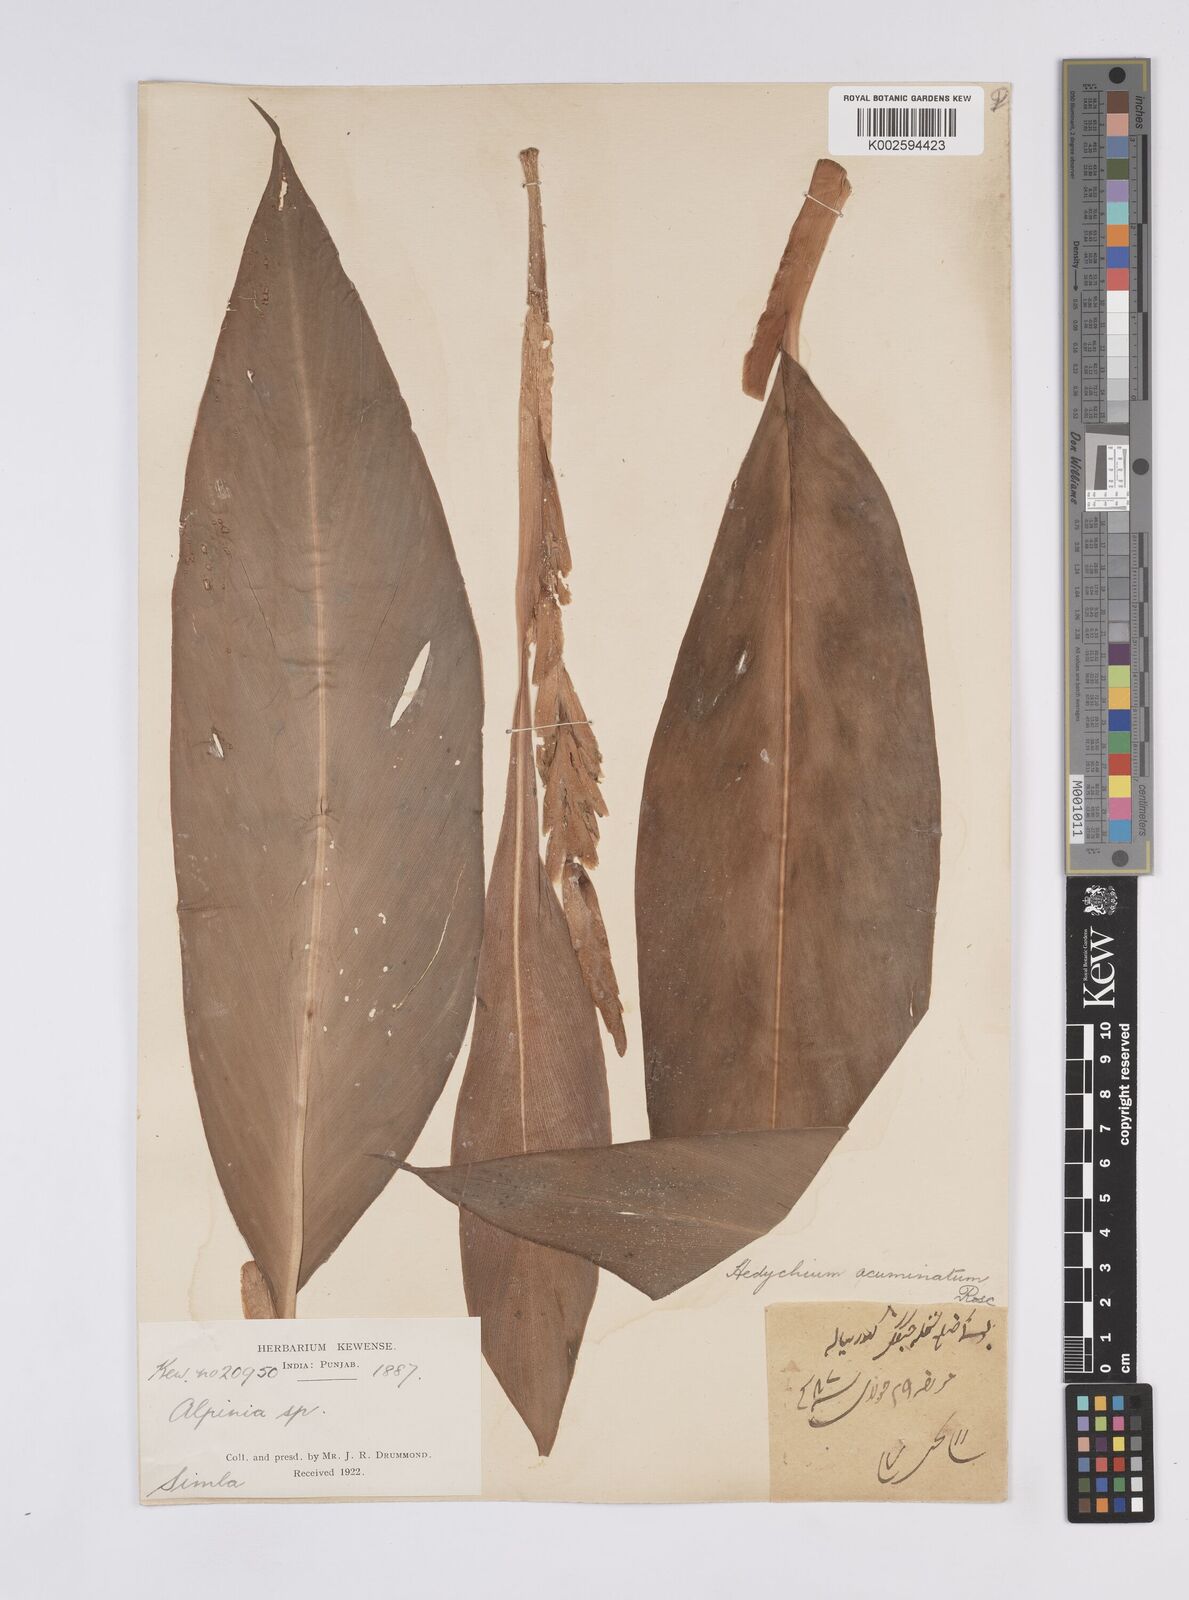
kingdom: Plantae
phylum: Tracheophyta
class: Liliopsida
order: Zingiberales
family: Zingiberaceae
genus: Hedychium
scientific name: Hedychium spicatum
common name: Spiked ginger-lily
